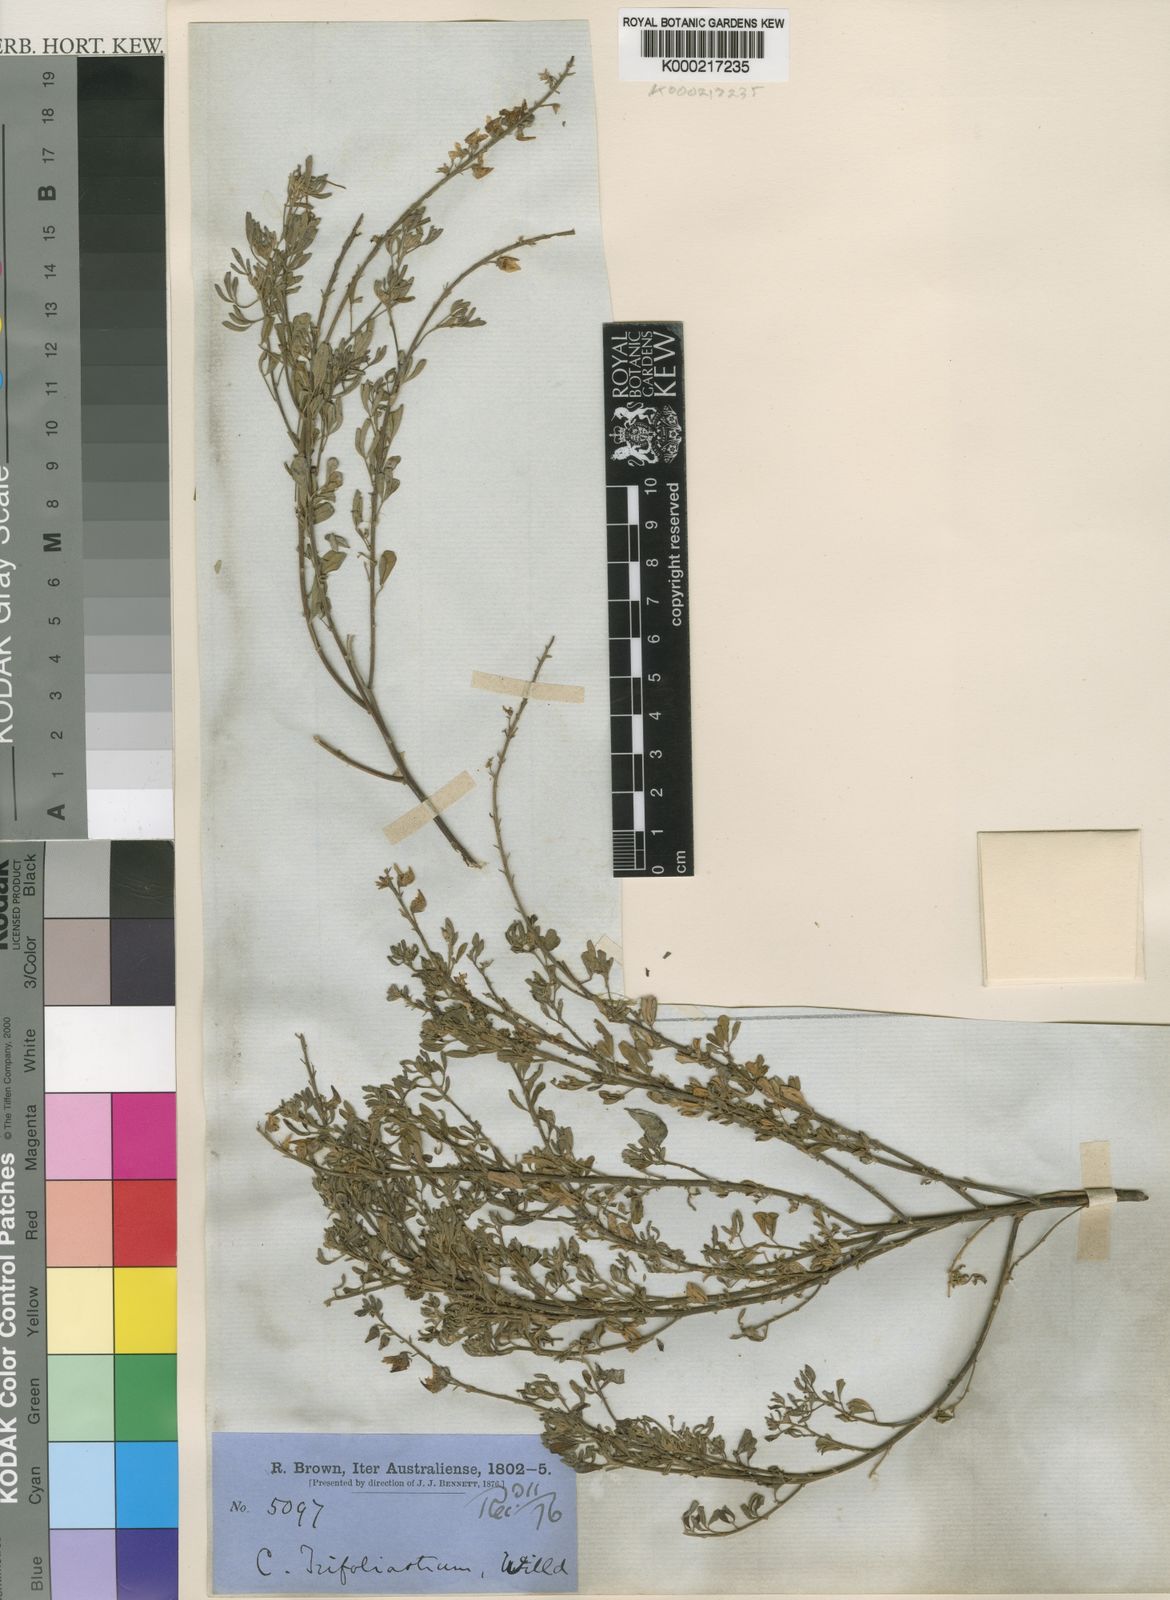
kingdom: Plantae
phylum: Tracheophyta
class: Magnoliopsida
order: Fabales
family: Fabaceae
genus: Crotalaria
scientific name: Crotalaria trifoliastrum
